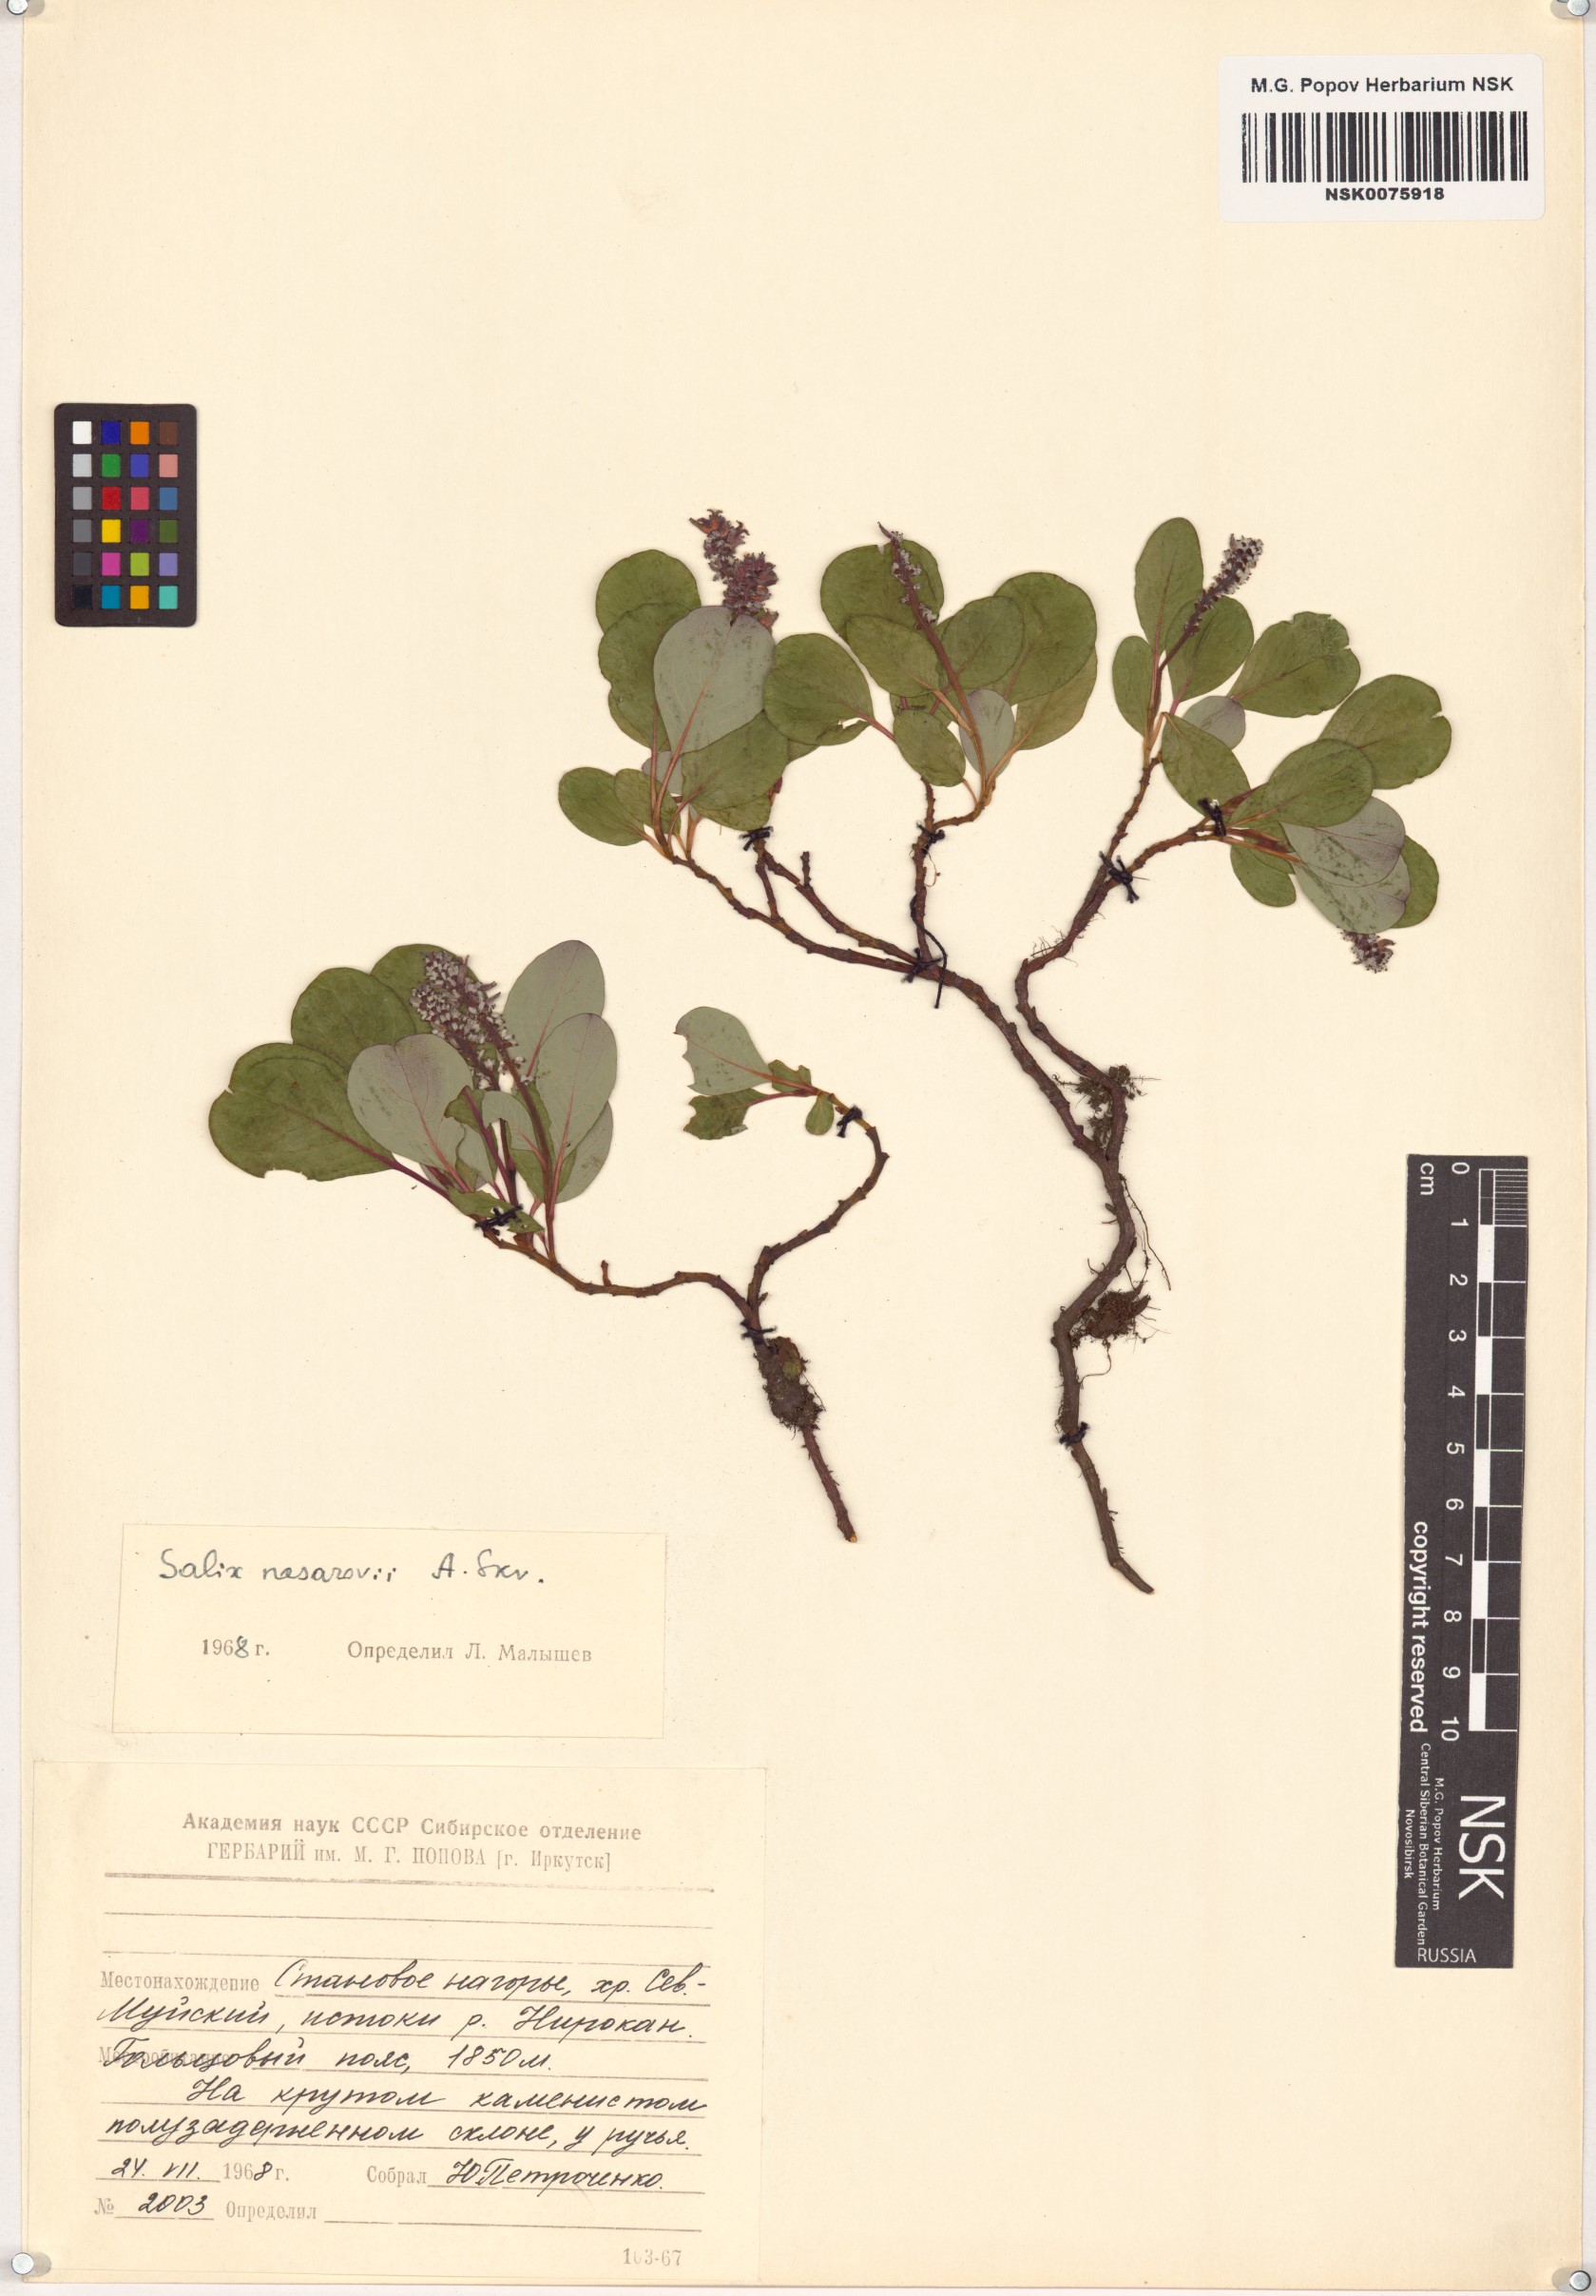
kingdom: Plantae
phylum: Tracheophyta
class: Magnoliopsida
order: Malpighiales
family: Salicaceae
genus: Salix
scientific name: Salix nasarovii
